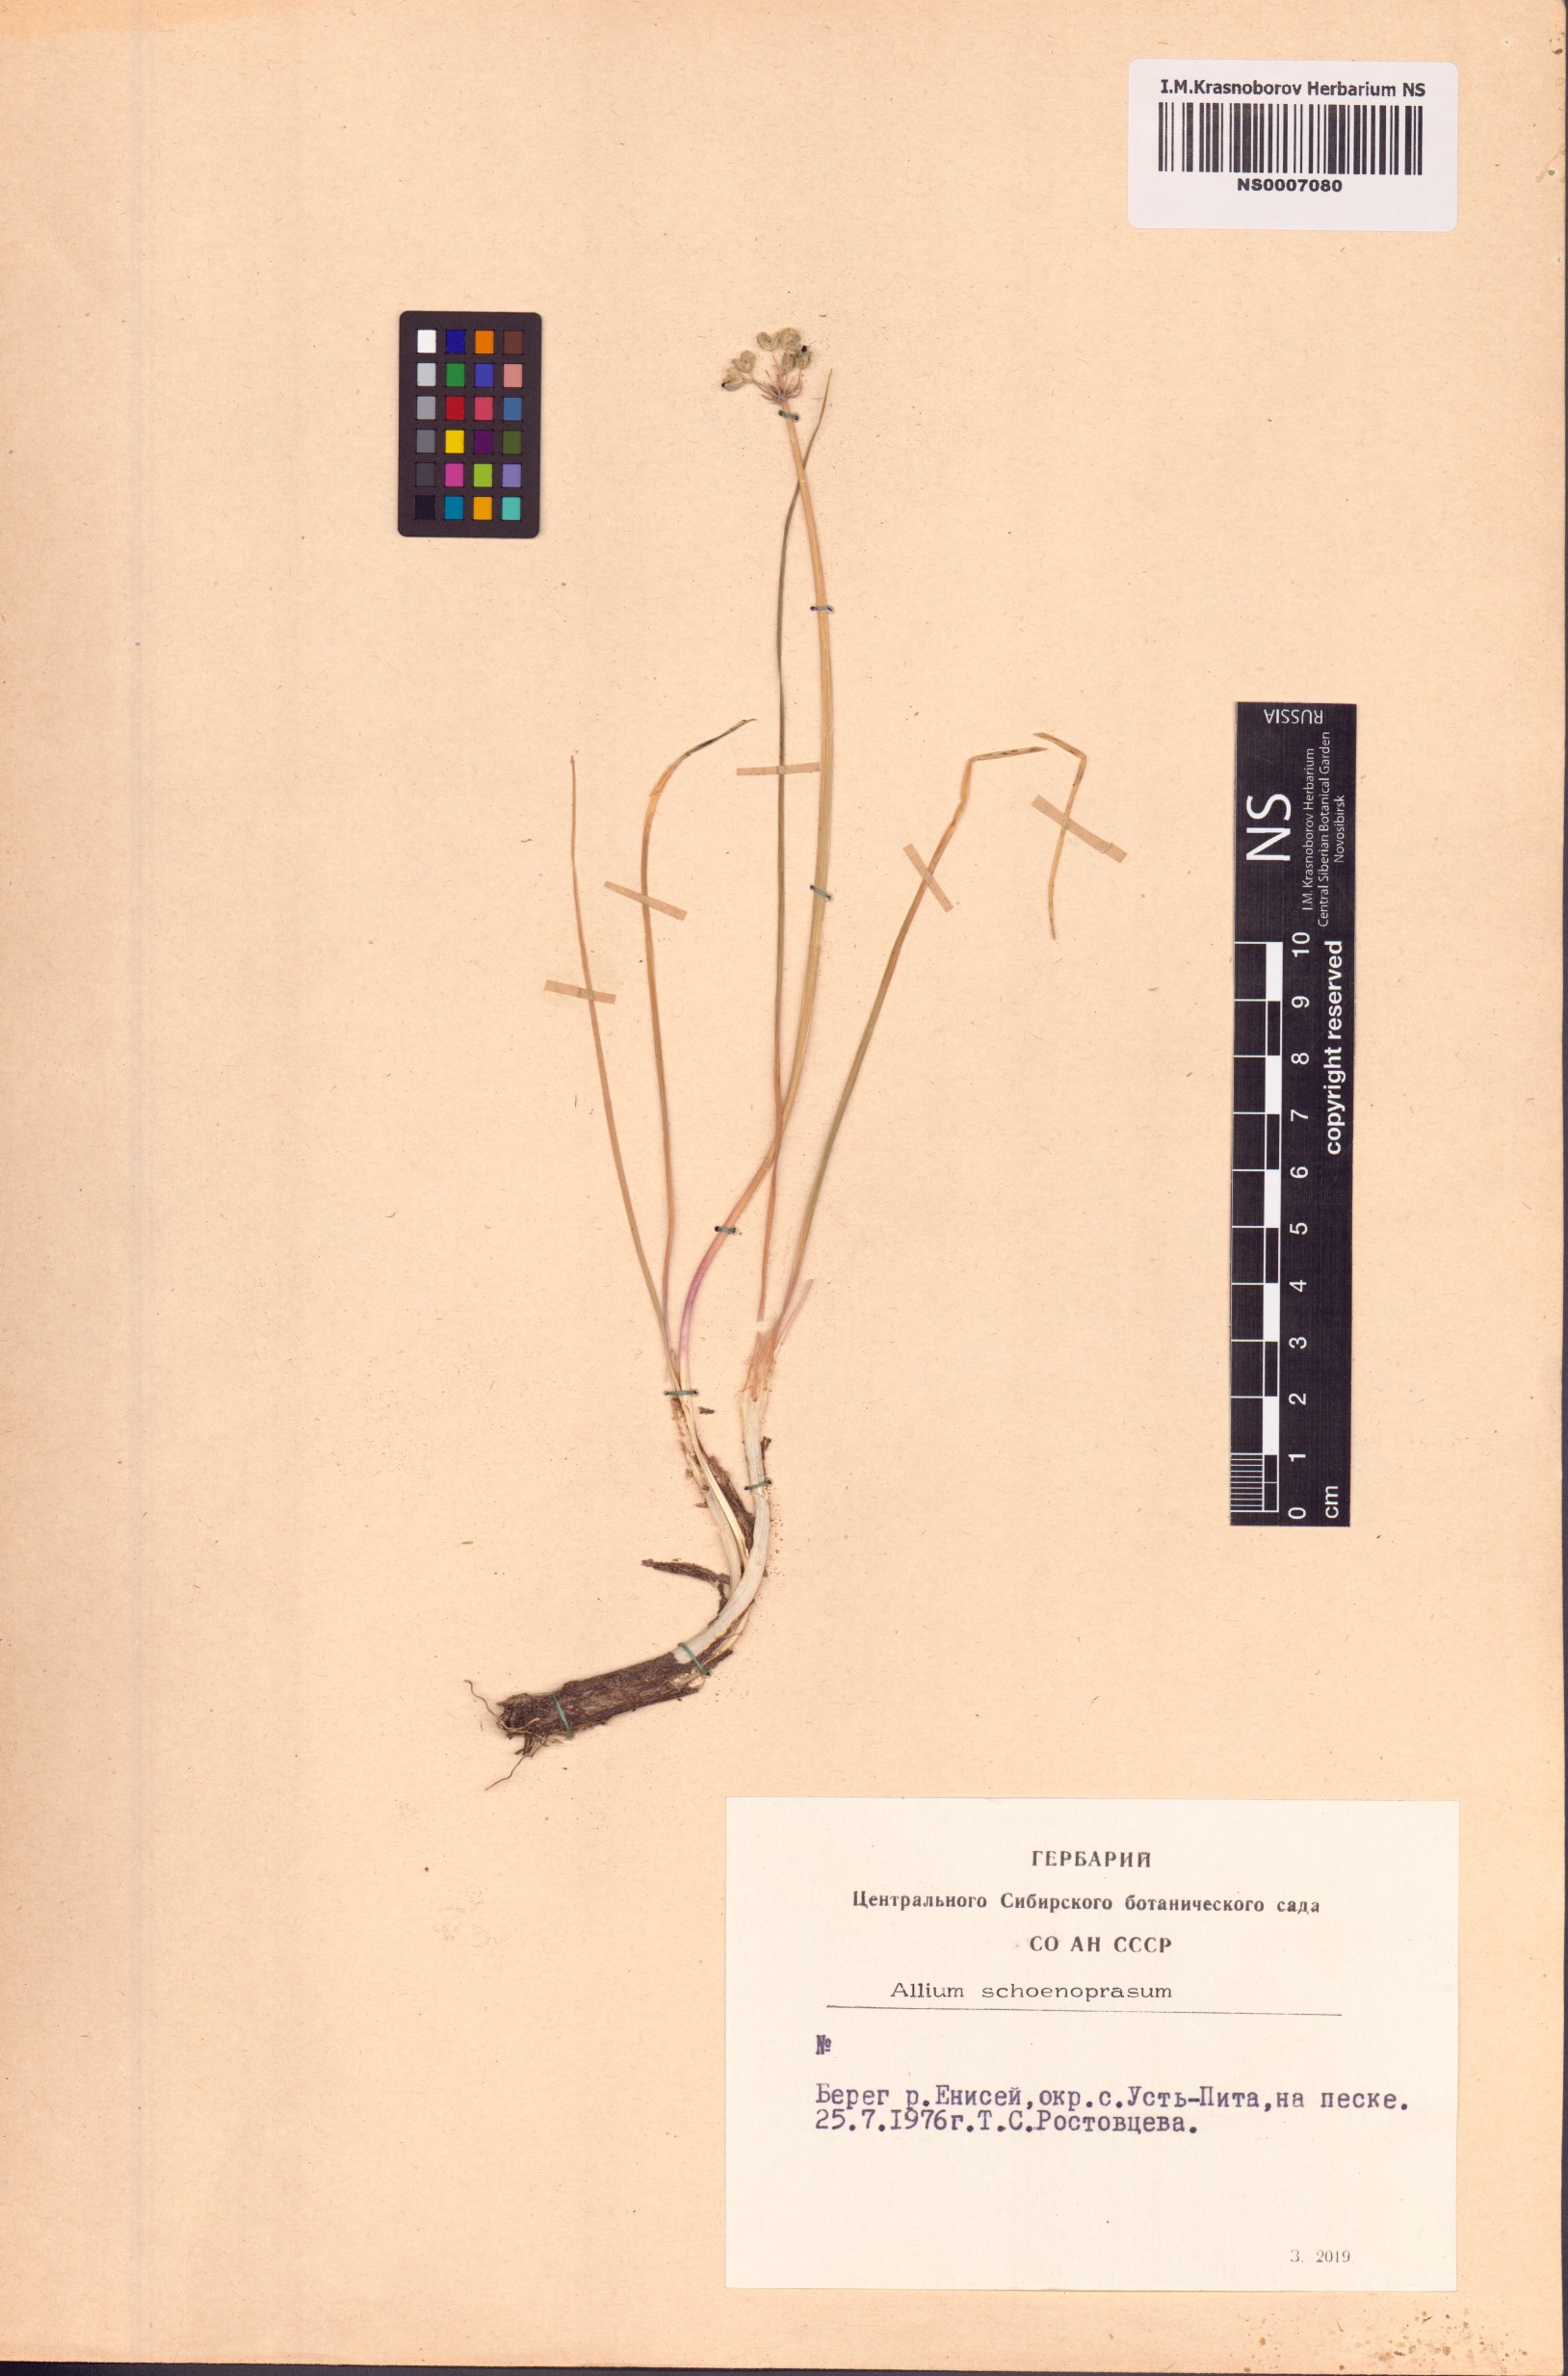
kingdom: Plantae
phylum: Tracheophyta
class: Liliopsida
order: Asparagales
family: Amaryllidaceae
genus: Allium
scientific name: Allium schoenoprasum
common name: Chives
